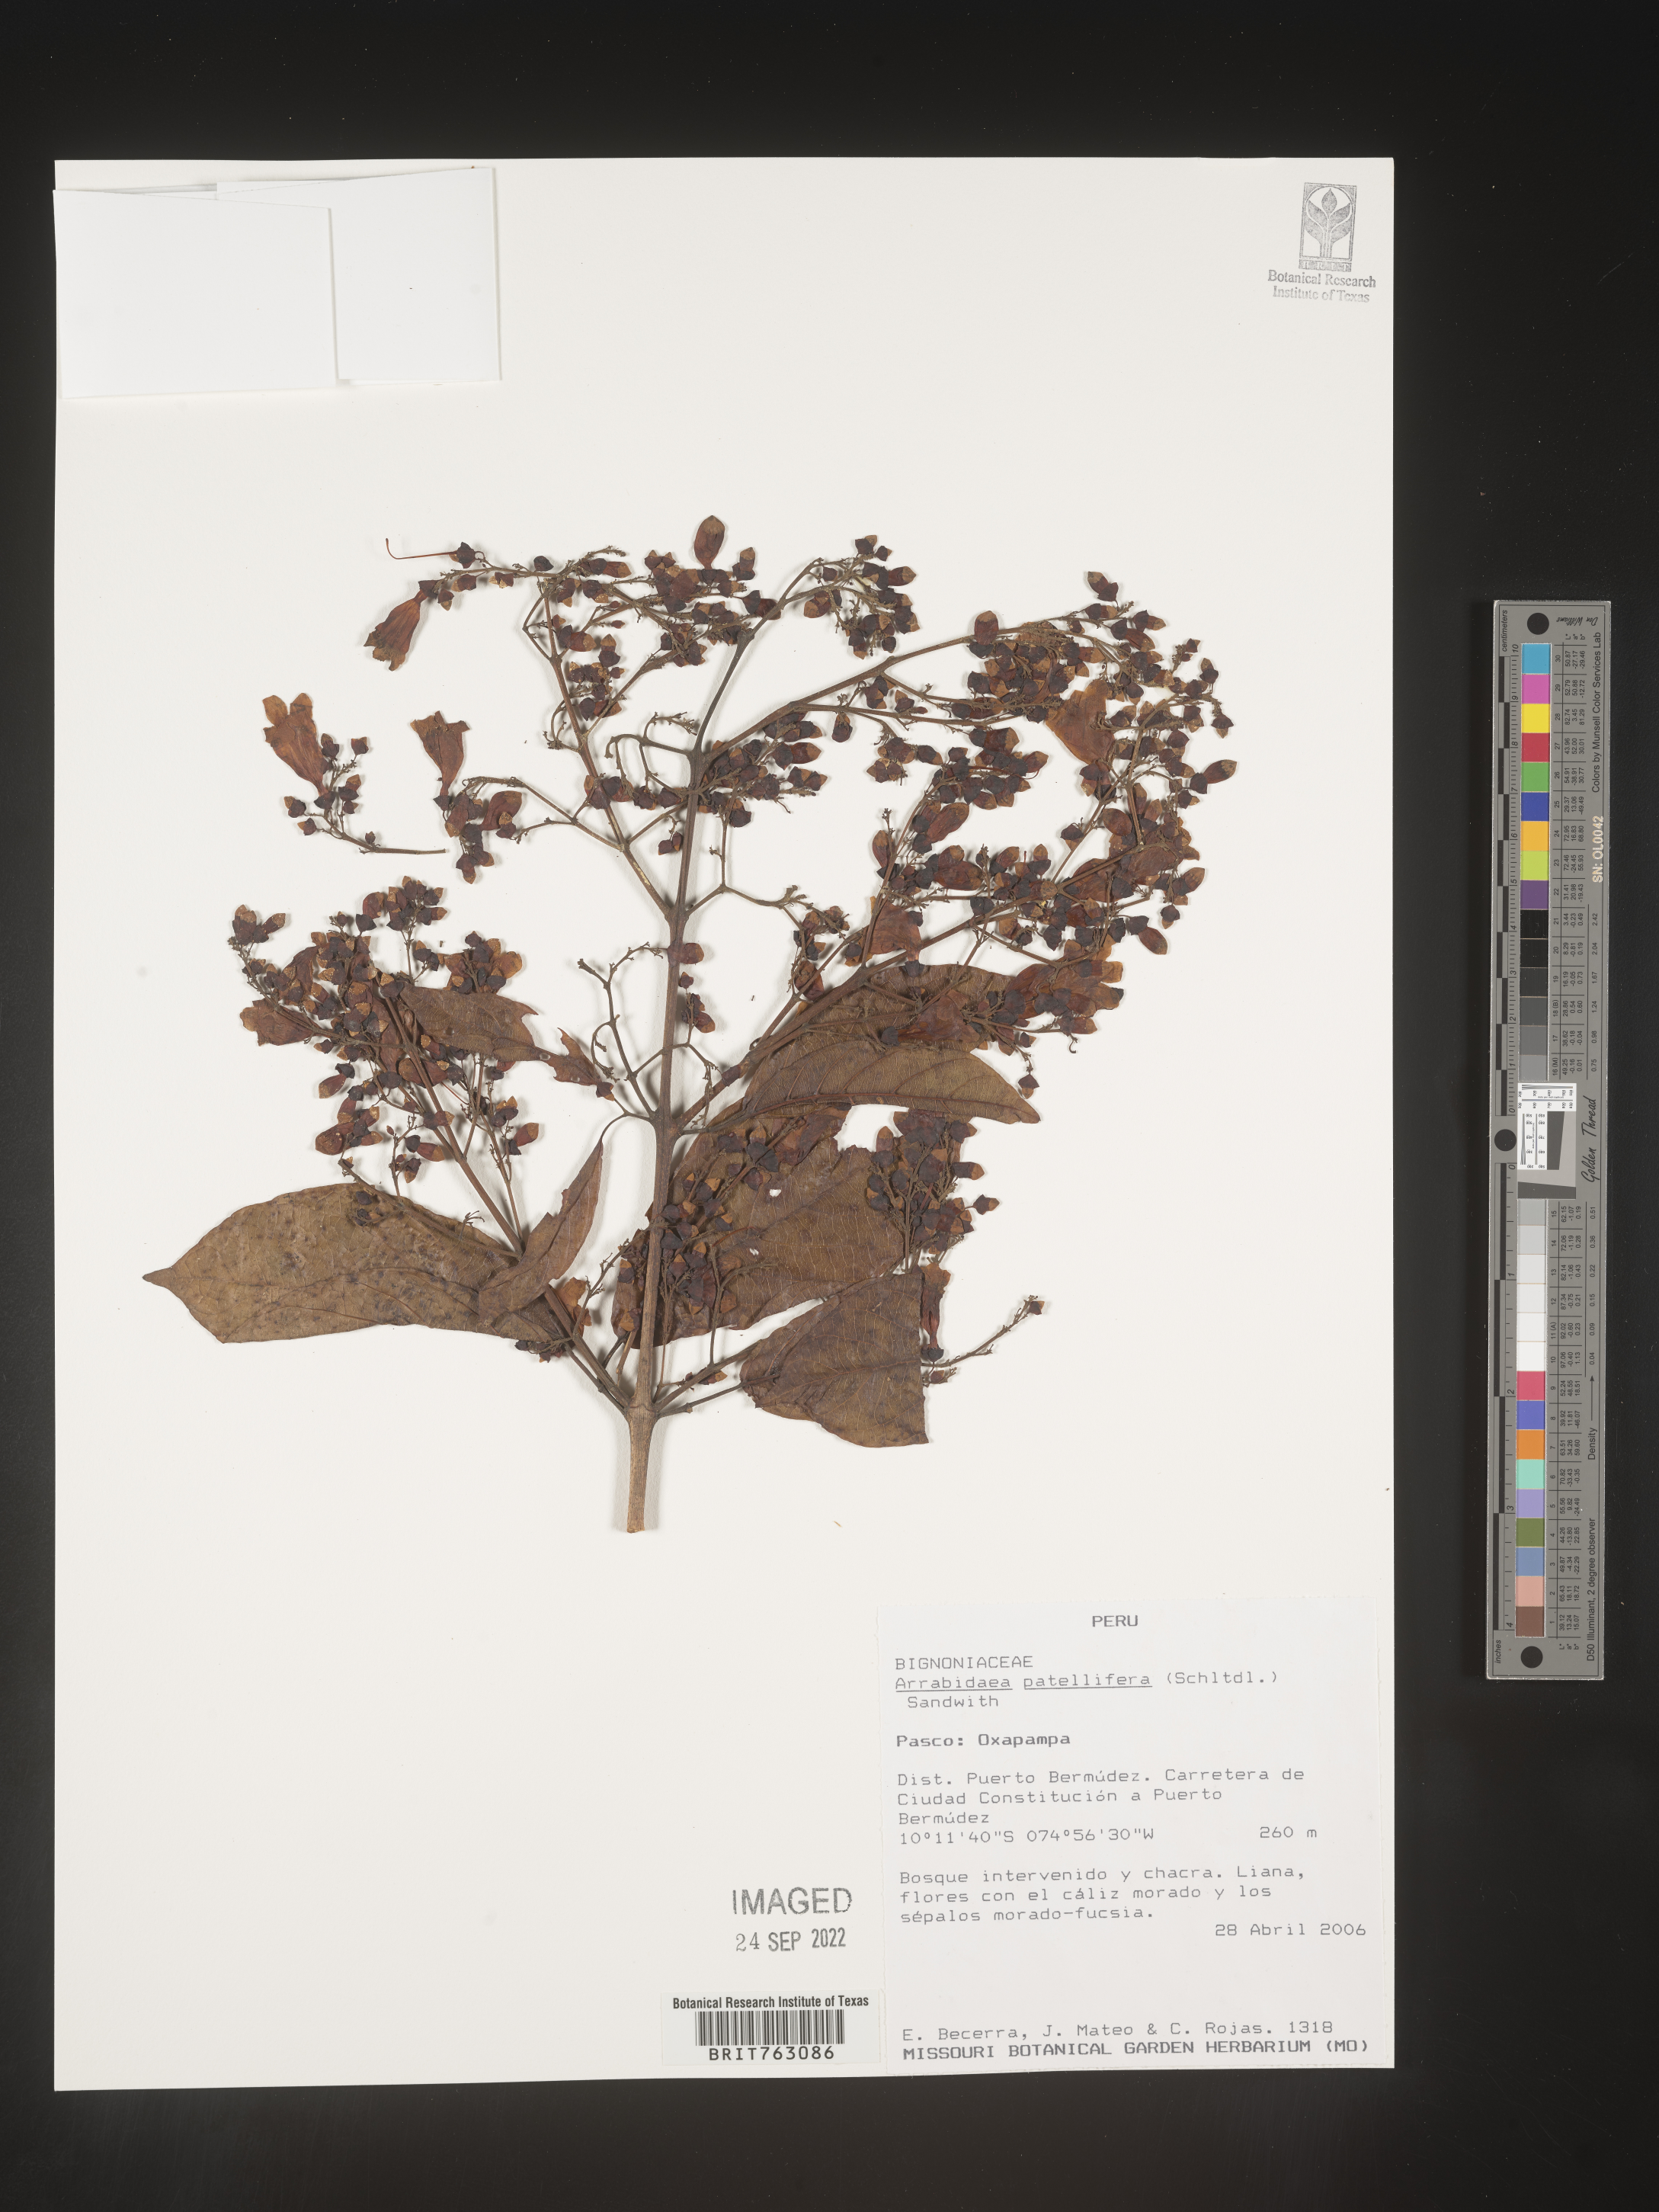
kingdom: Plantae
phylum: Tracheophyta
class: Magnoliopsida
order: Rosales
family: Rhamnaceae
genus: Arrabidaea
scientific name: Arrabidaea
